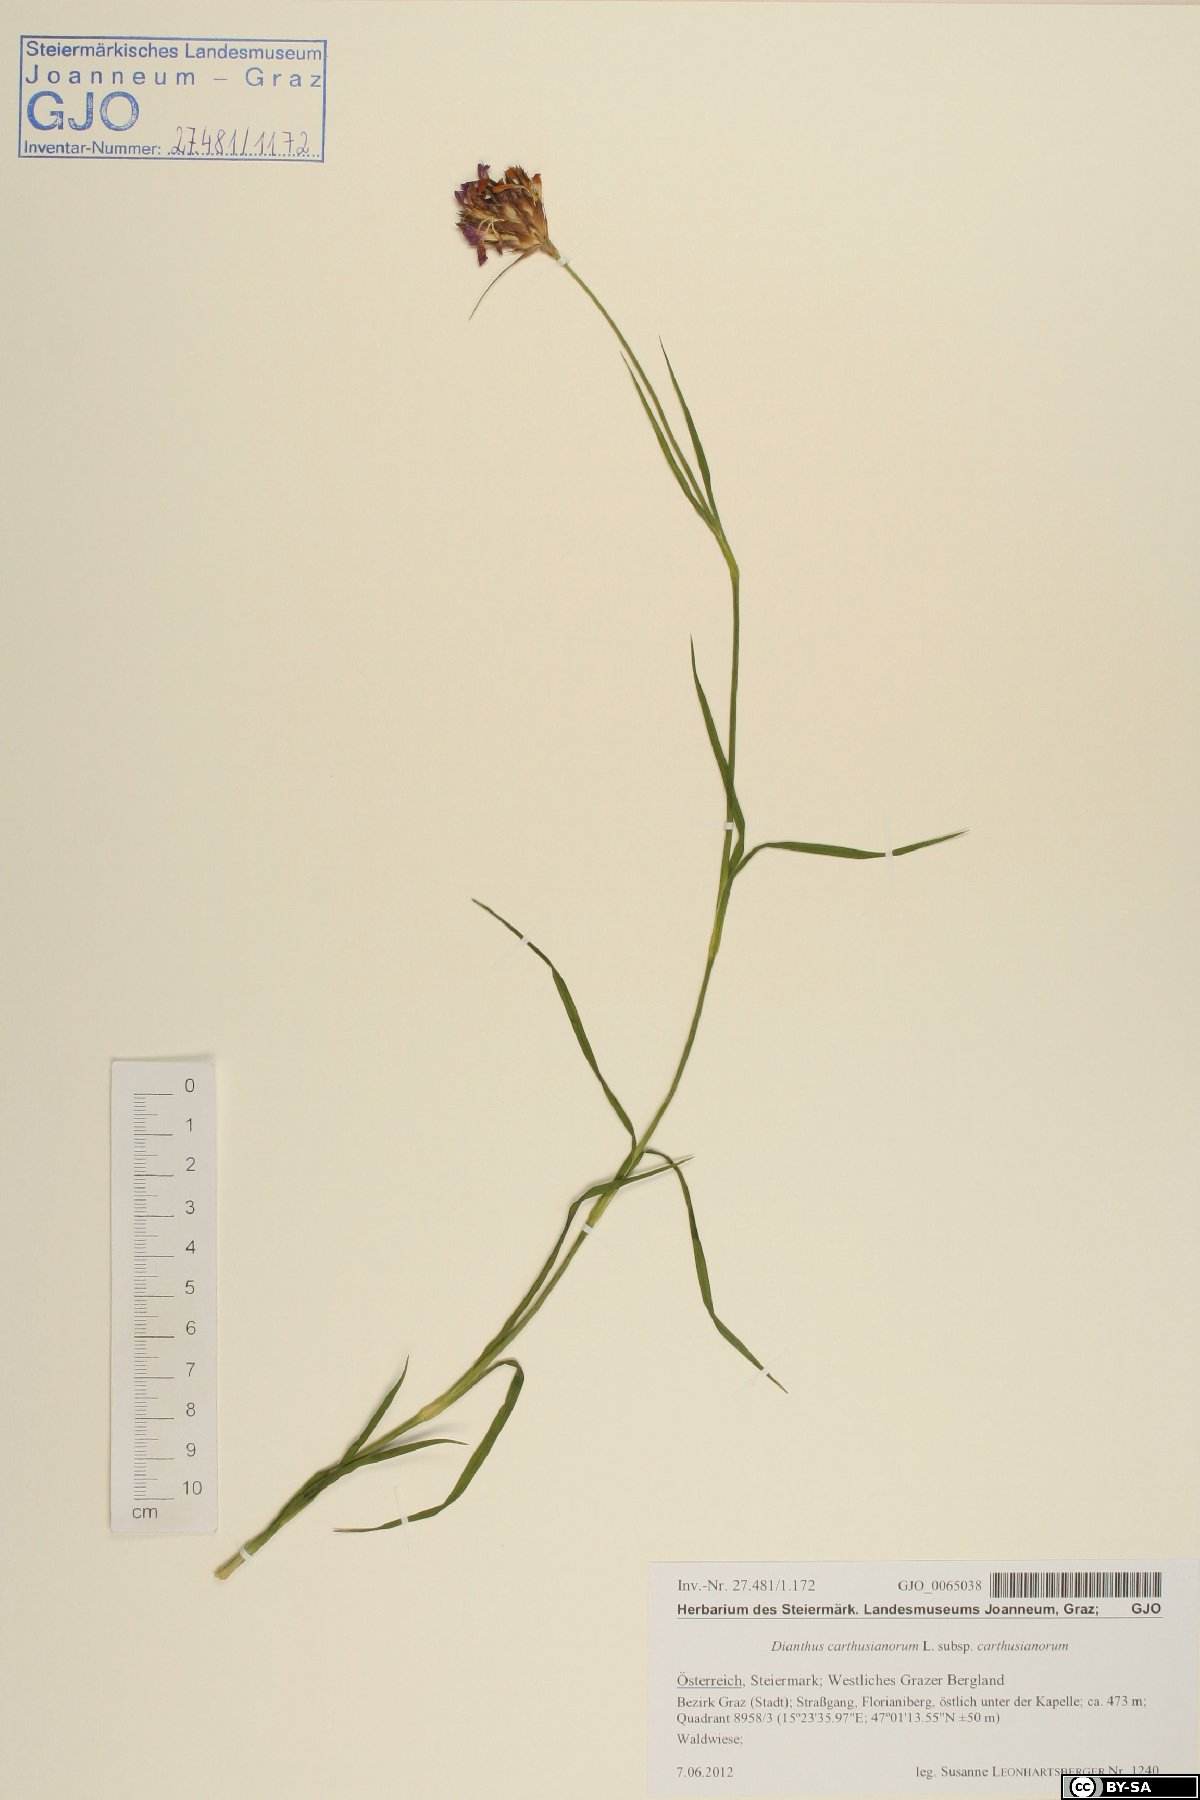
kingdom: Plantae
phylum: Tracheophyta
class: Magnoliopsida
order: Caryophyllales
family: Caryophyllaceae
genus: Dianthus
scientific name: Dianthus carthusianorum
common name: Carthusian pink
